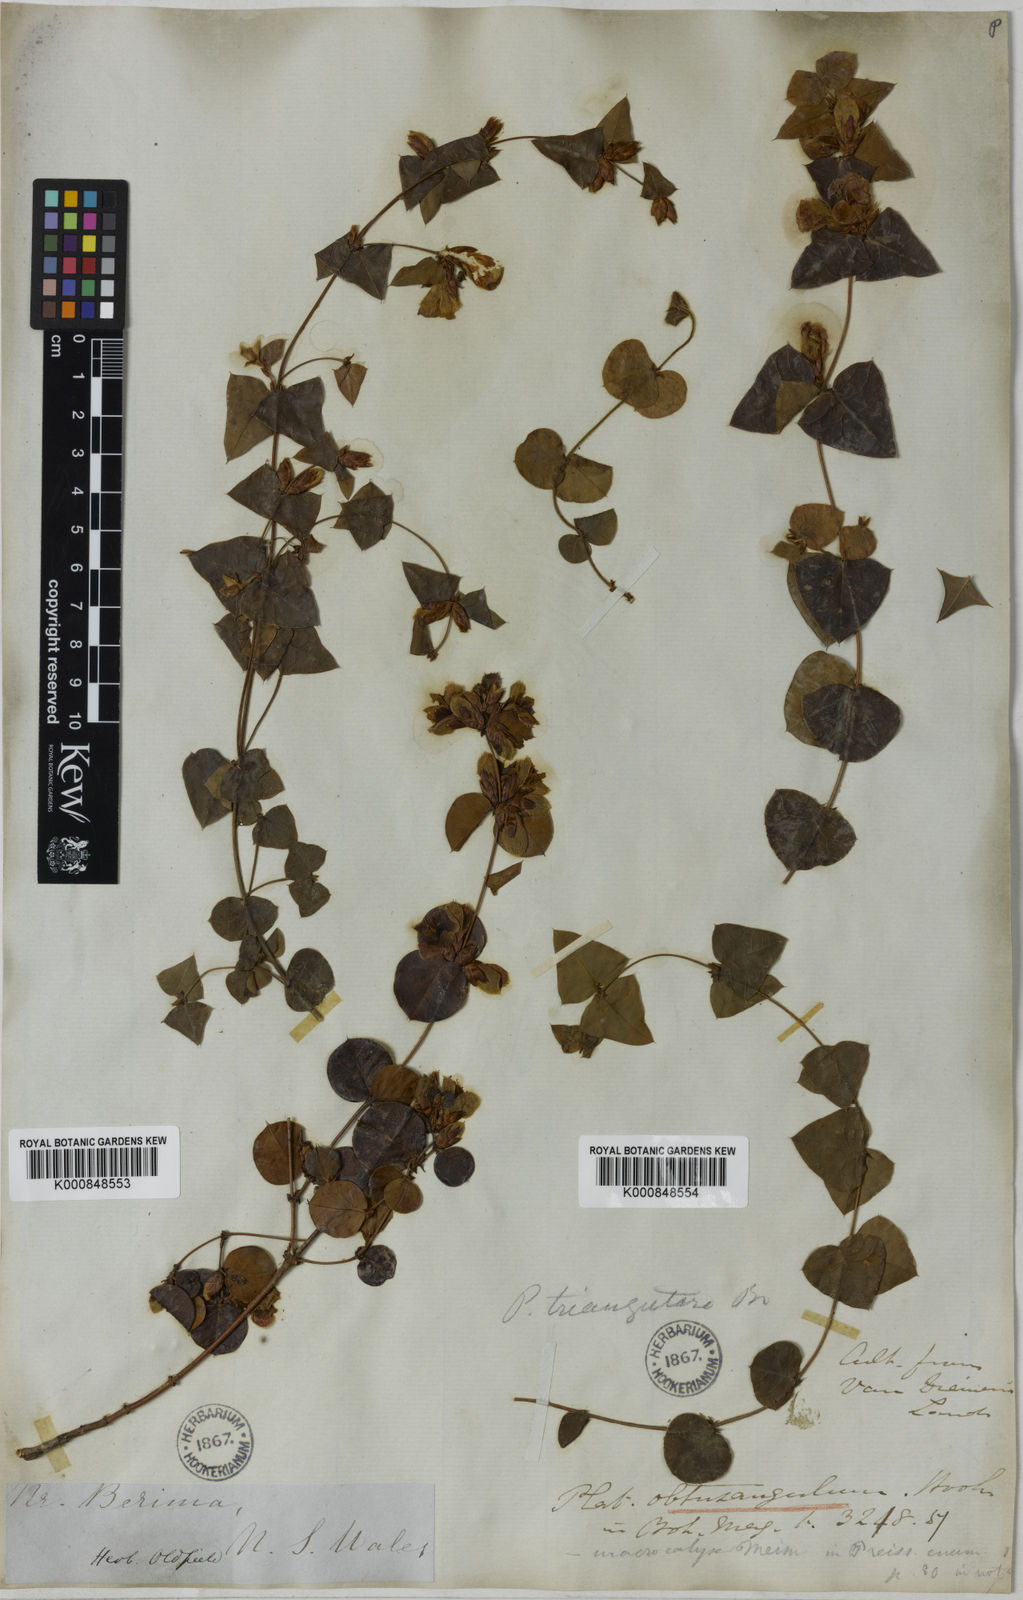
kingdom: Plantae
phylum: Tracheophyta
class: Magnoliopsida
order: Fabales
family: Fabaceae
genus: Platylobium
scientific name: Platylobium obtusangulum
